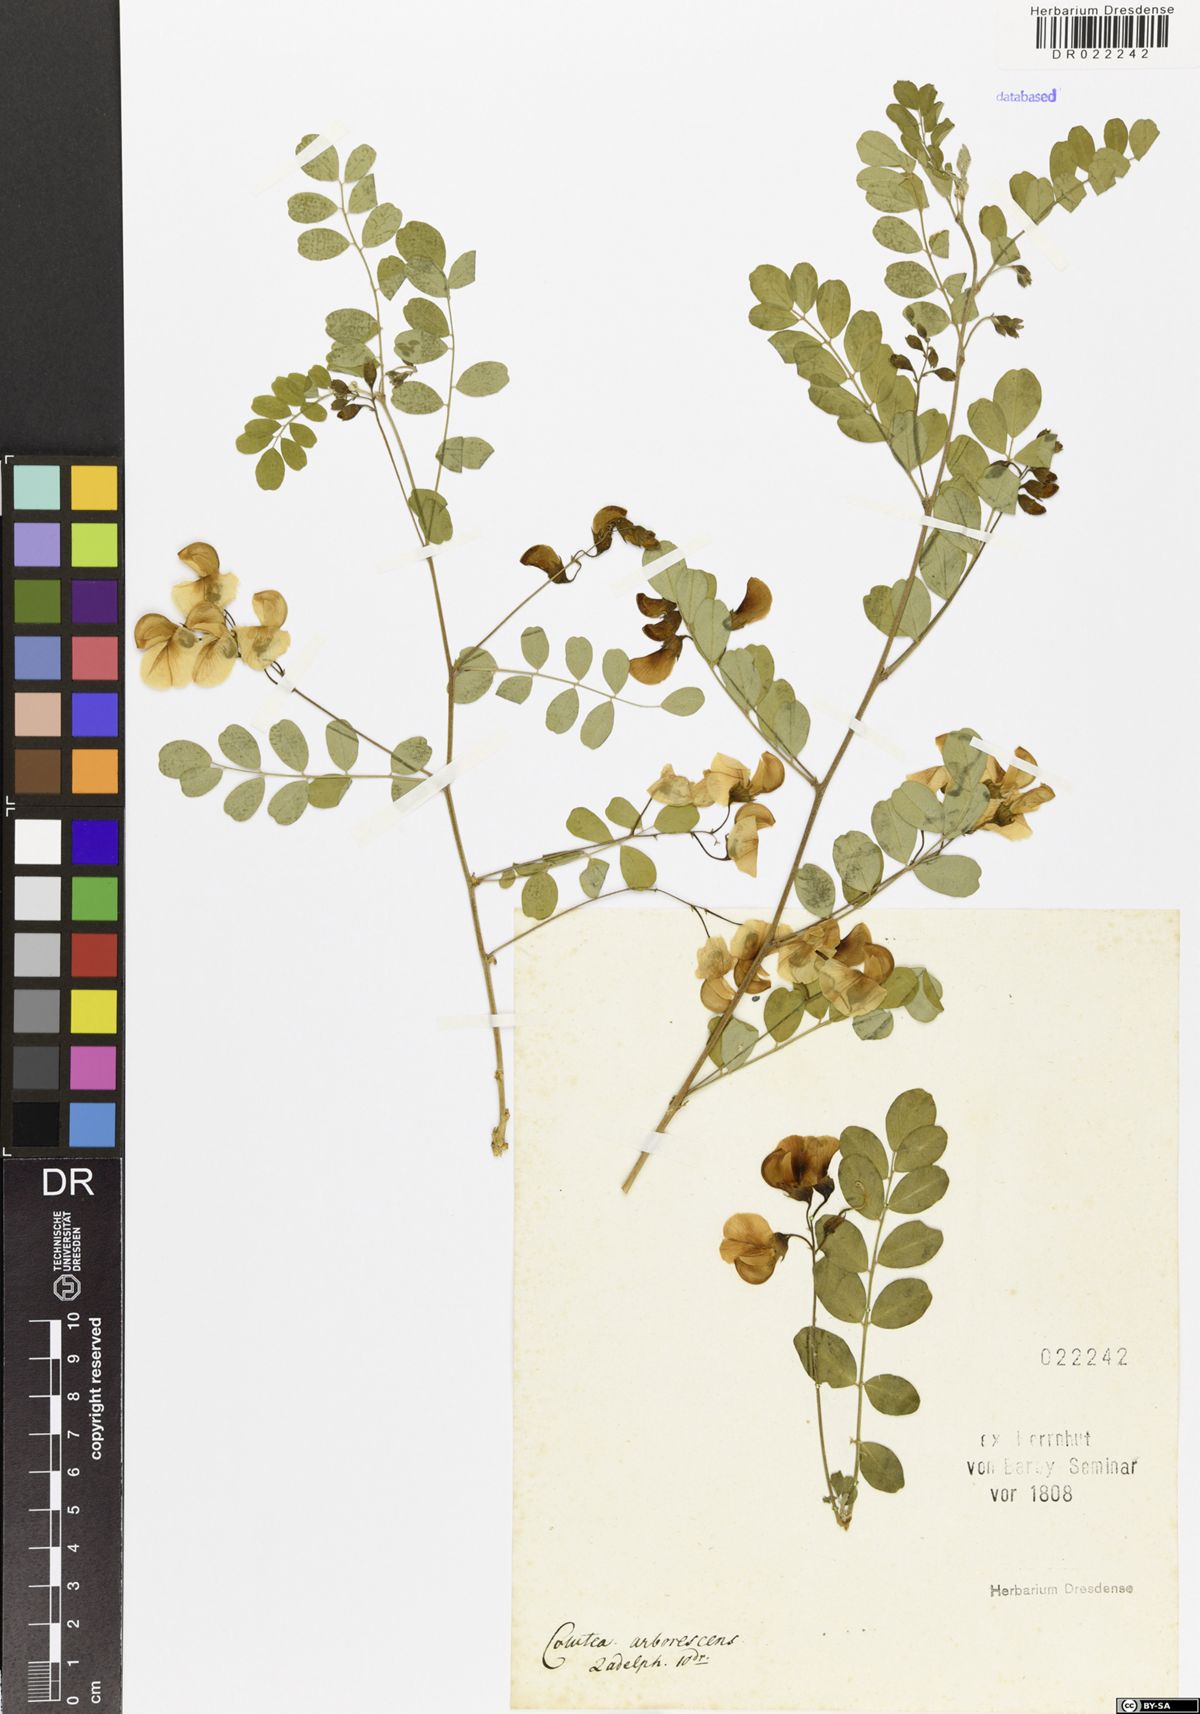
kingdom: Plantae
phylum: Tracheophyta
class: Magnoliopsida
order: Fabales
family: Fabaceae
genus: Colutea
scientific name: Colutea arborescens
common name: Bladder-senna
